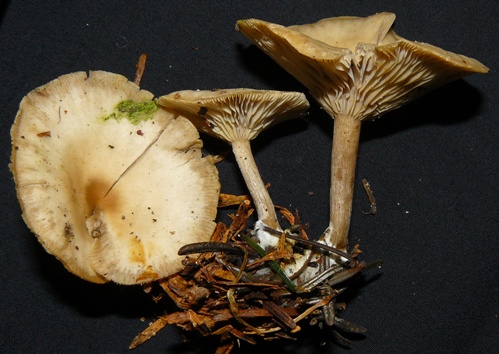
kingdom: Fungi
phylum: Basidiomycota
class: Agaricomycetes
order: Agaricales
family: Tricholomataceae
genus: Clitocybe
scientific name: Clitocybe metachroa
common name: grå tragthat
